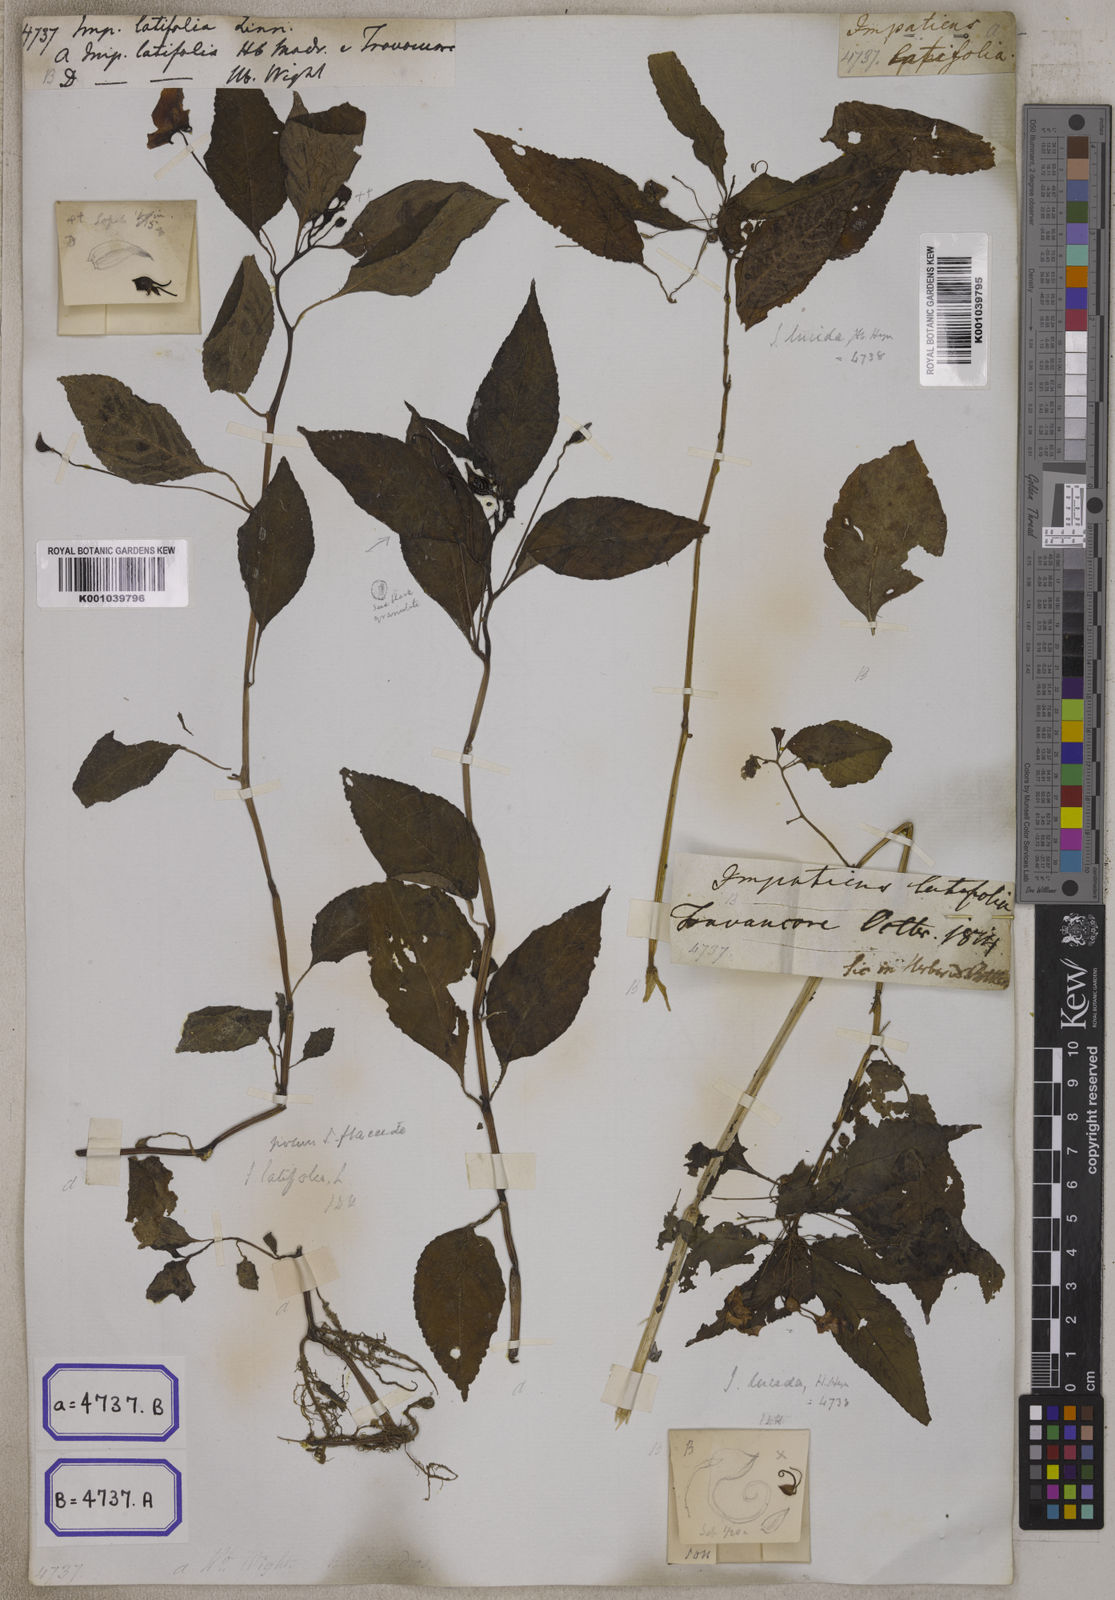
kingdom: Plantae
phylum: Tracheophyta
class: Magnoliopsida
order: Ericales
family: Balsaminaceae
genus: Impatiens
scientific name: Impatiens latifolia
